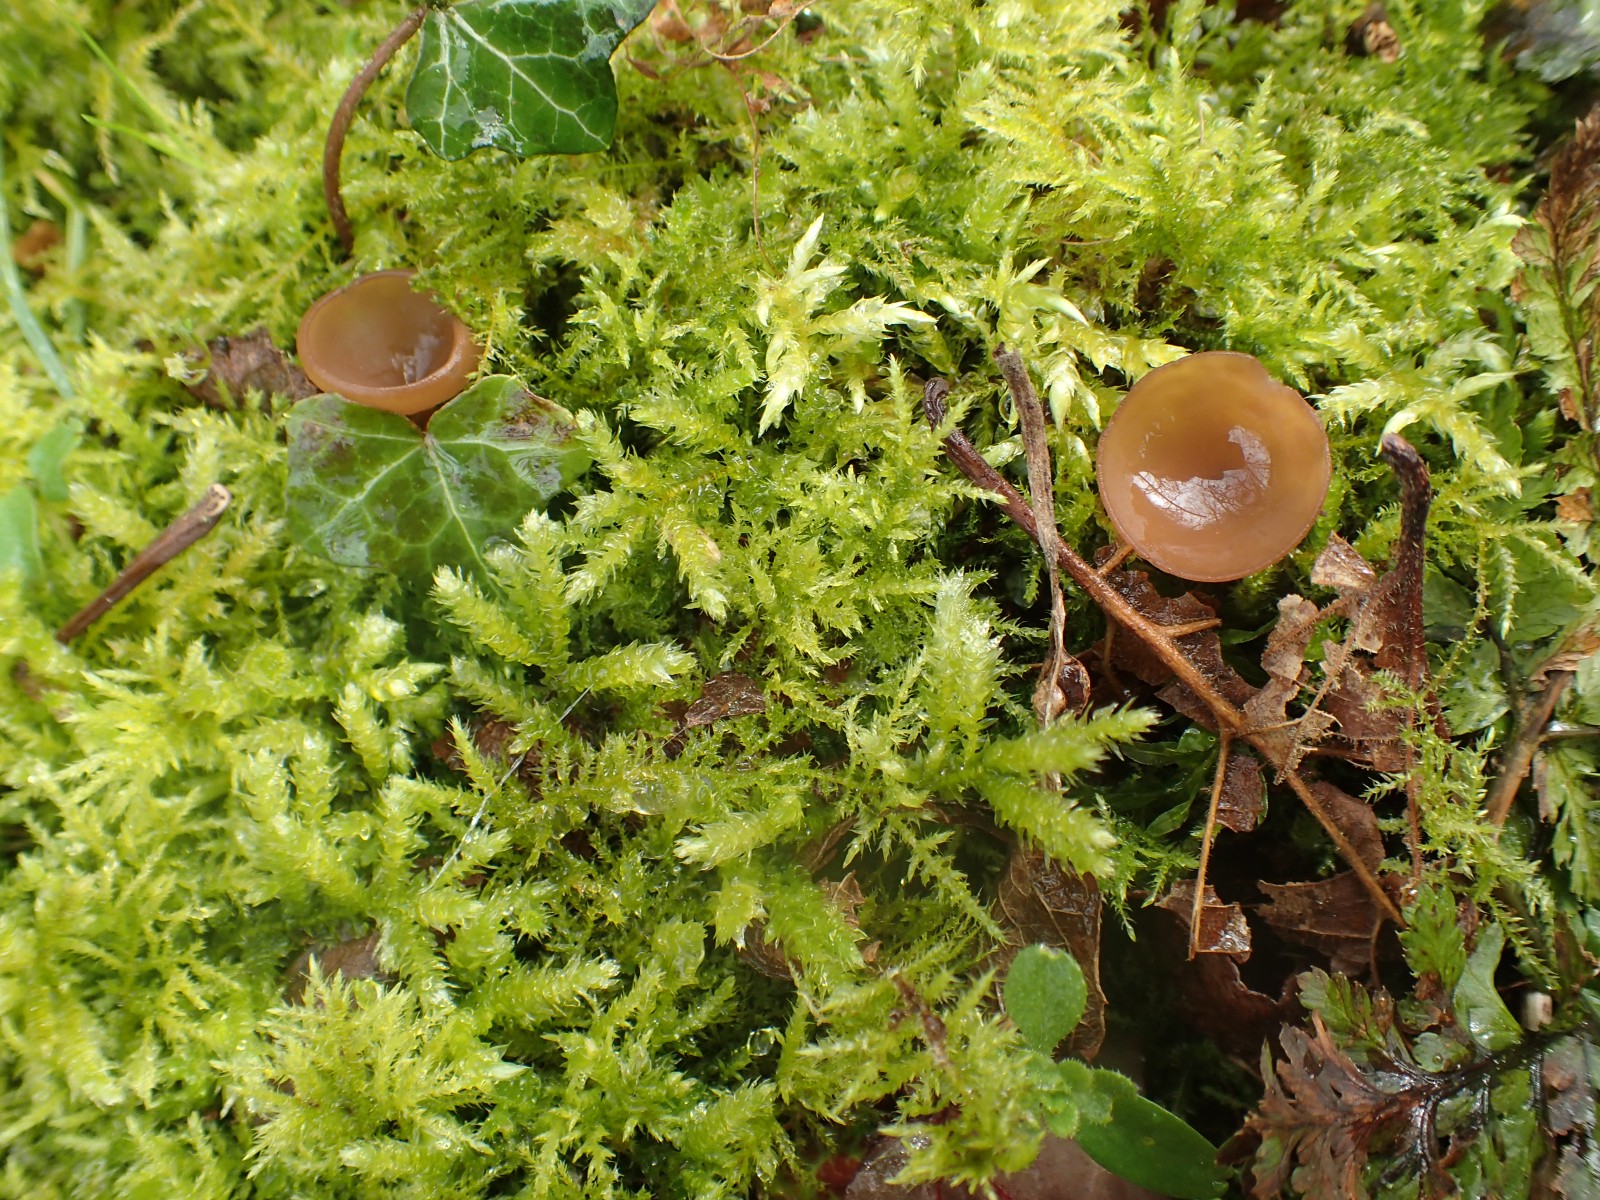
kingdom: Fungi
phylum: Ascomycota
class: Leotiomycetes
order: Helotiales
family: Sclerotiniaceae
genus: Dumontinia
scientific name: Dumontinia tuberosa
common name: anemone-knoldskive
